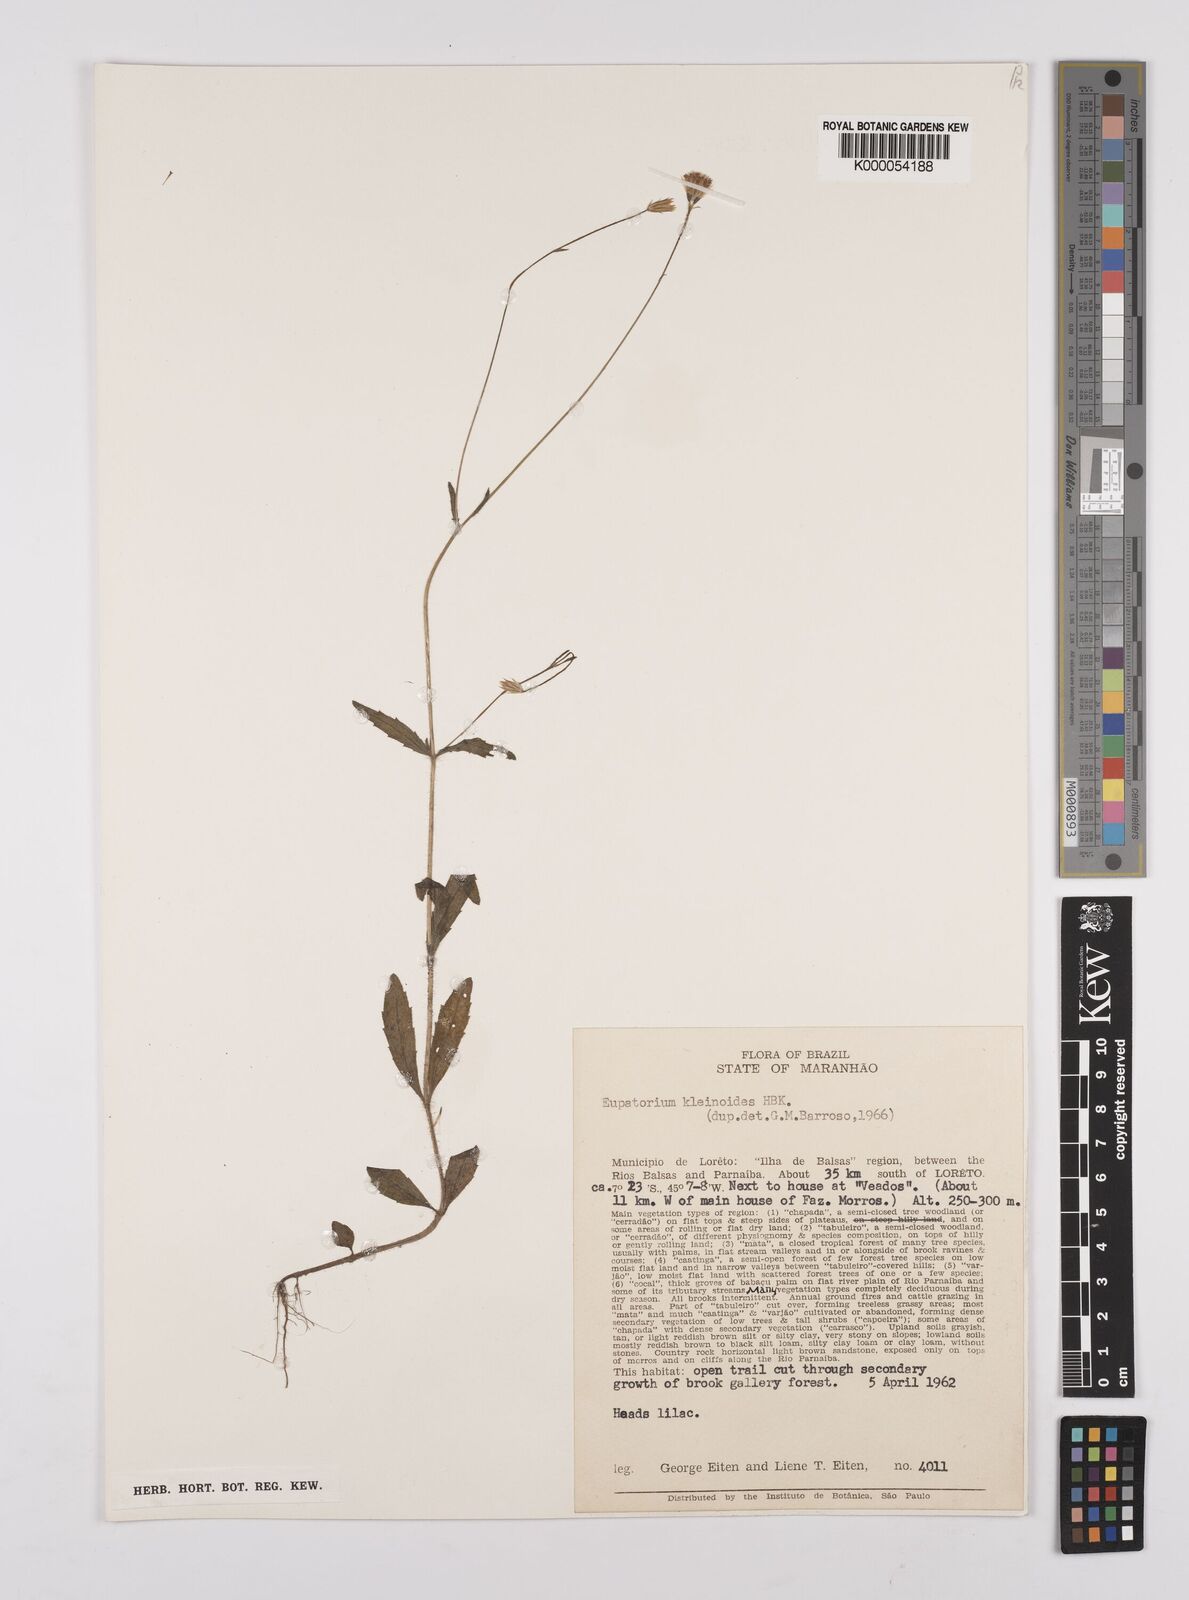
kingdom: Plantae
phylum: Tracheophyta
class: Magnoliopsida
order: Asterales
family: Asteraceae
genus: Praxelis
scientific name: Praxelis kleinioides
